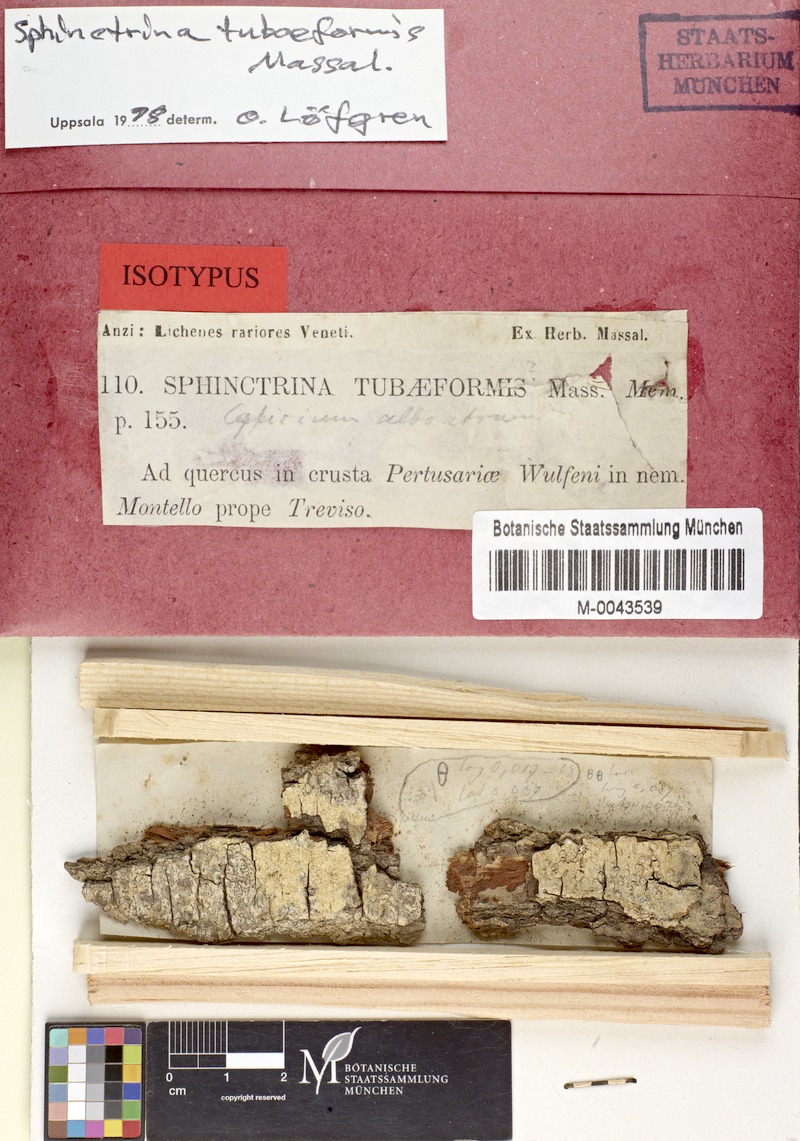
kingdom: Fungi
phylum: Ascomycota
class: Eurotiomycetes
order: Mycocaliciales
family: Sphinctrinaceae
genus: Sphinctrina
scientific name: Sphinctrina tubaeformis
